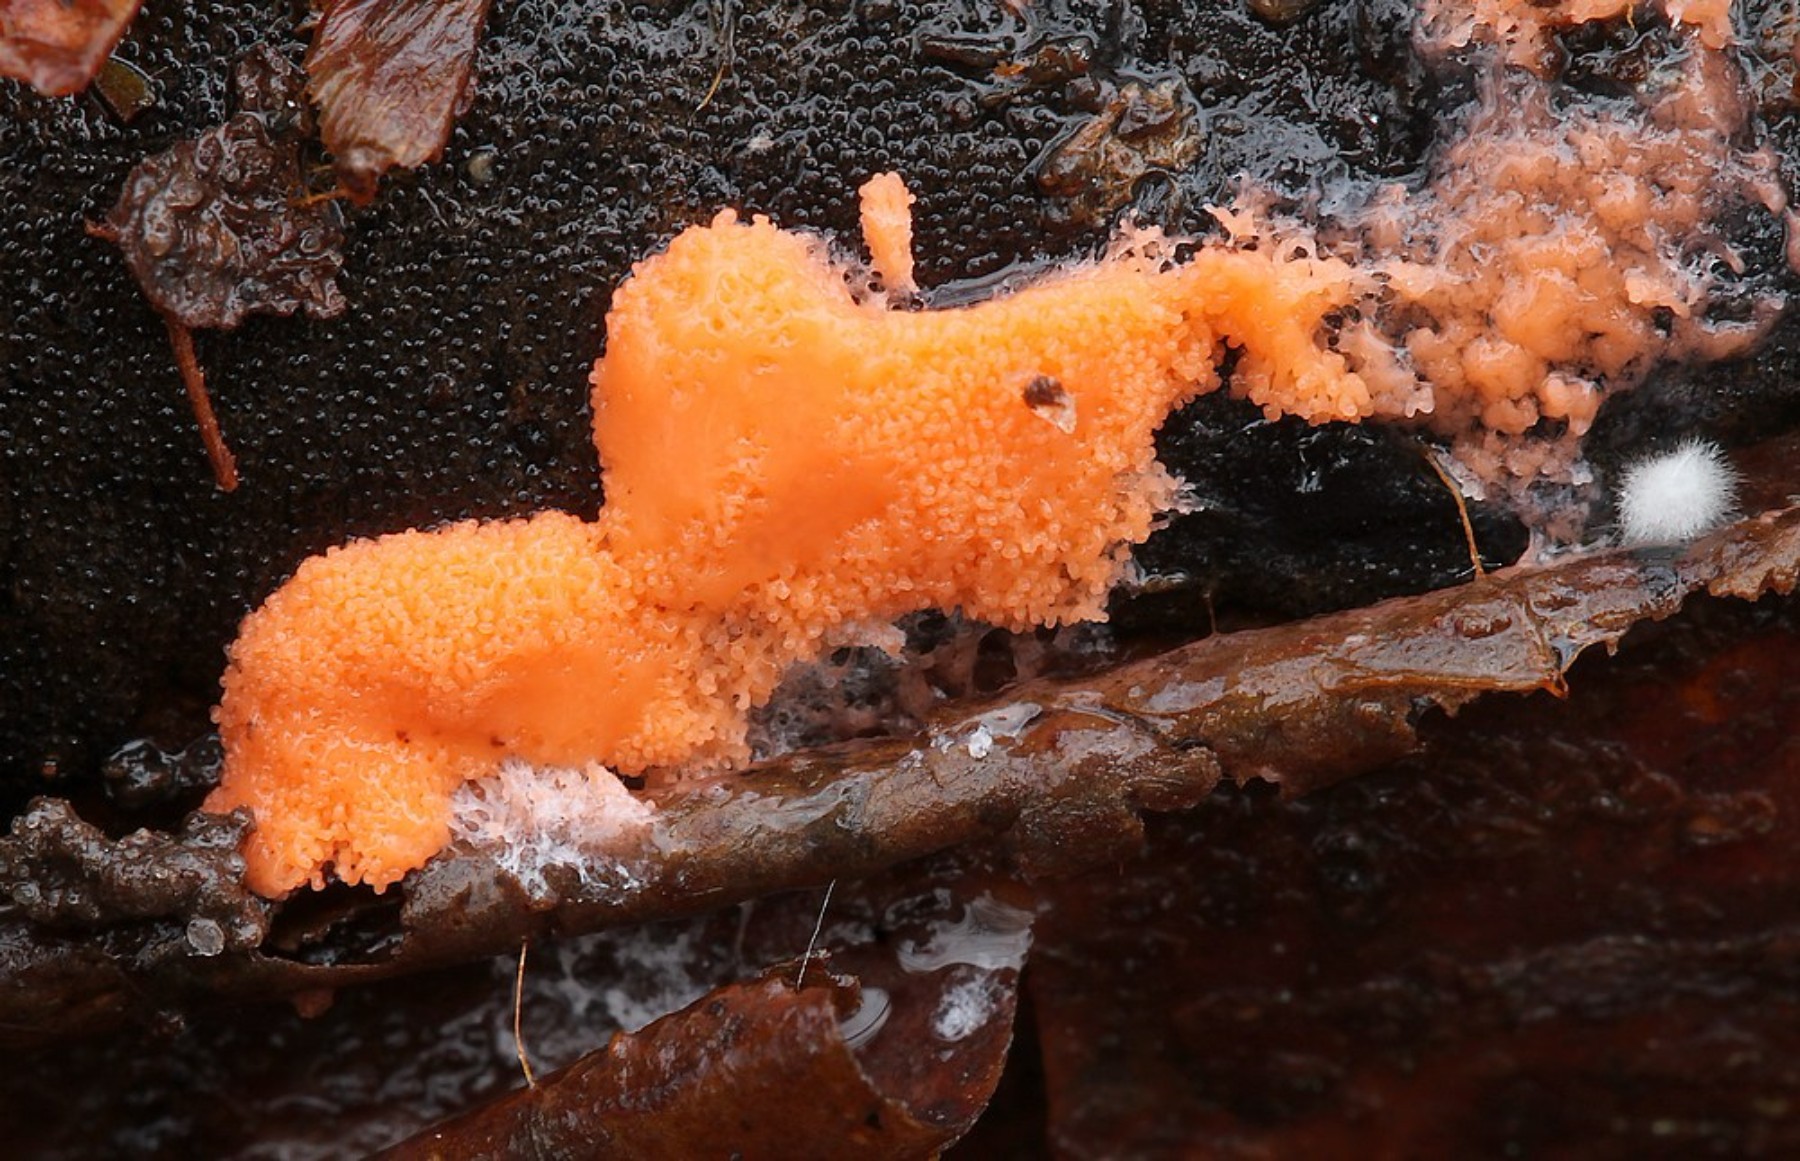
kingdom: Protozoa
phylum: Mycetozoa
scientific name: Mycetozoa
